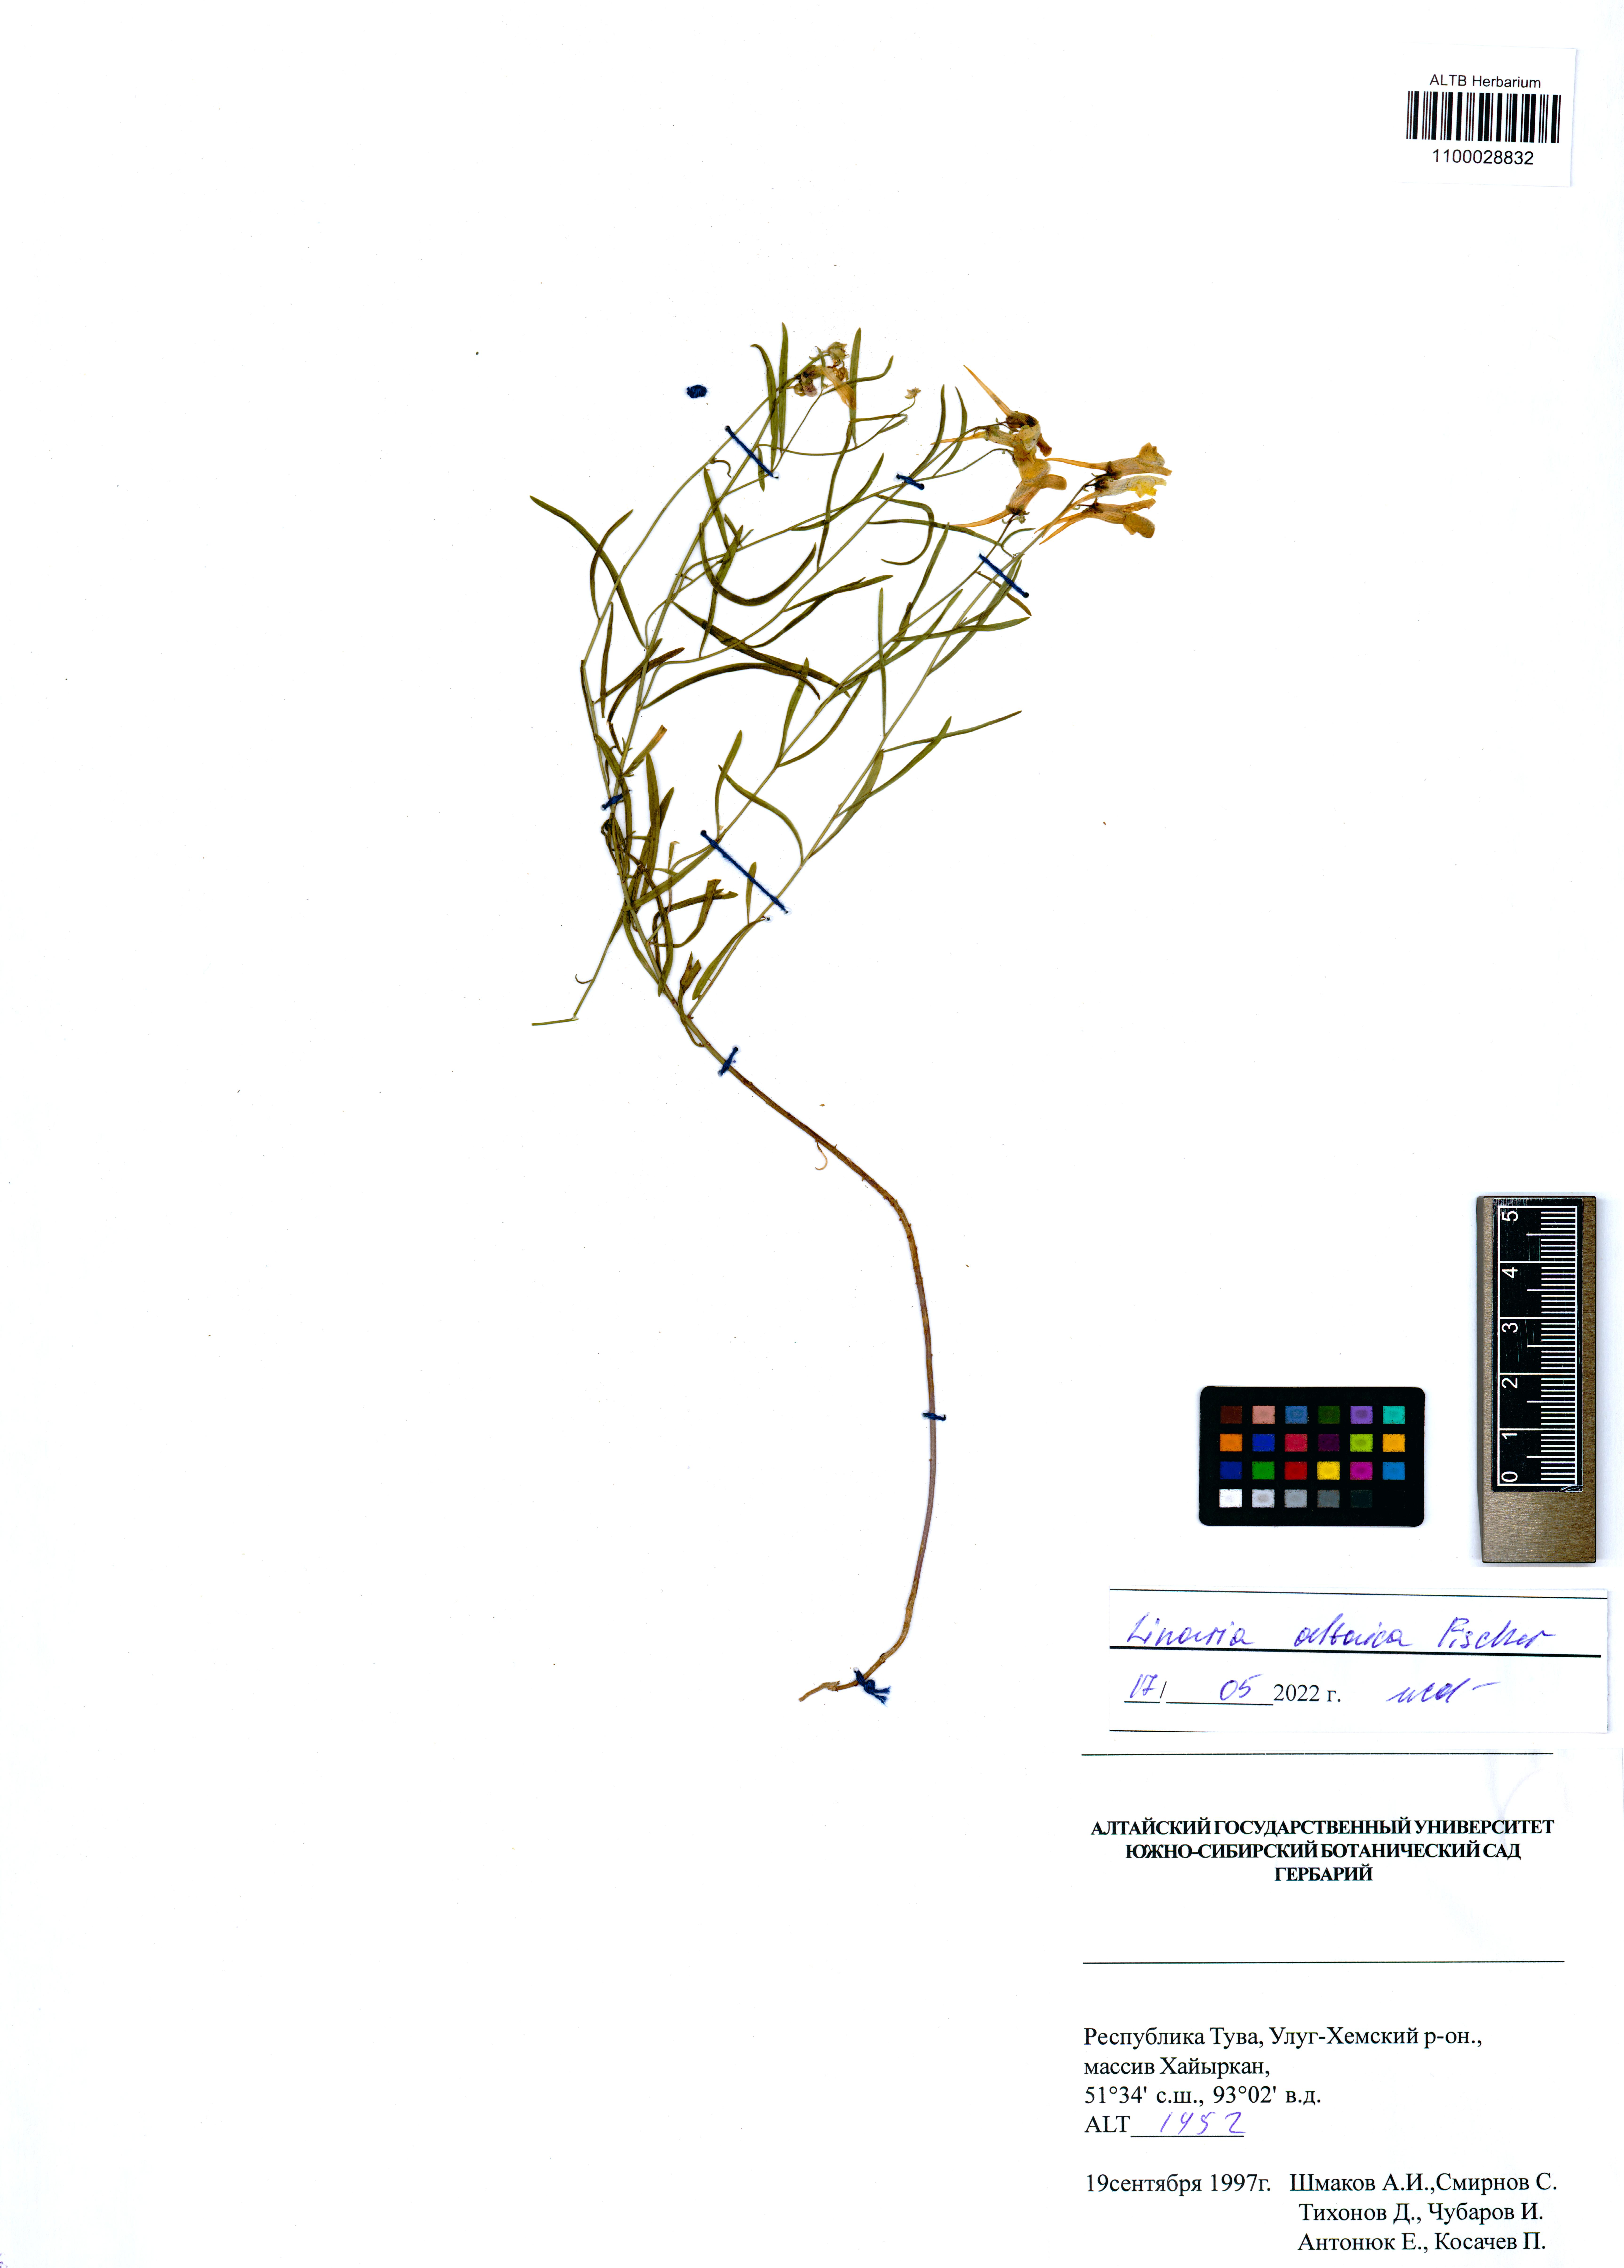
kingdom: Plantae
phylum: Tracheophyta
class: Magnoliopsida
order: Lamiales
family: Plantaginaceae
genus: Linaria
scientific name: Linaria altaica
